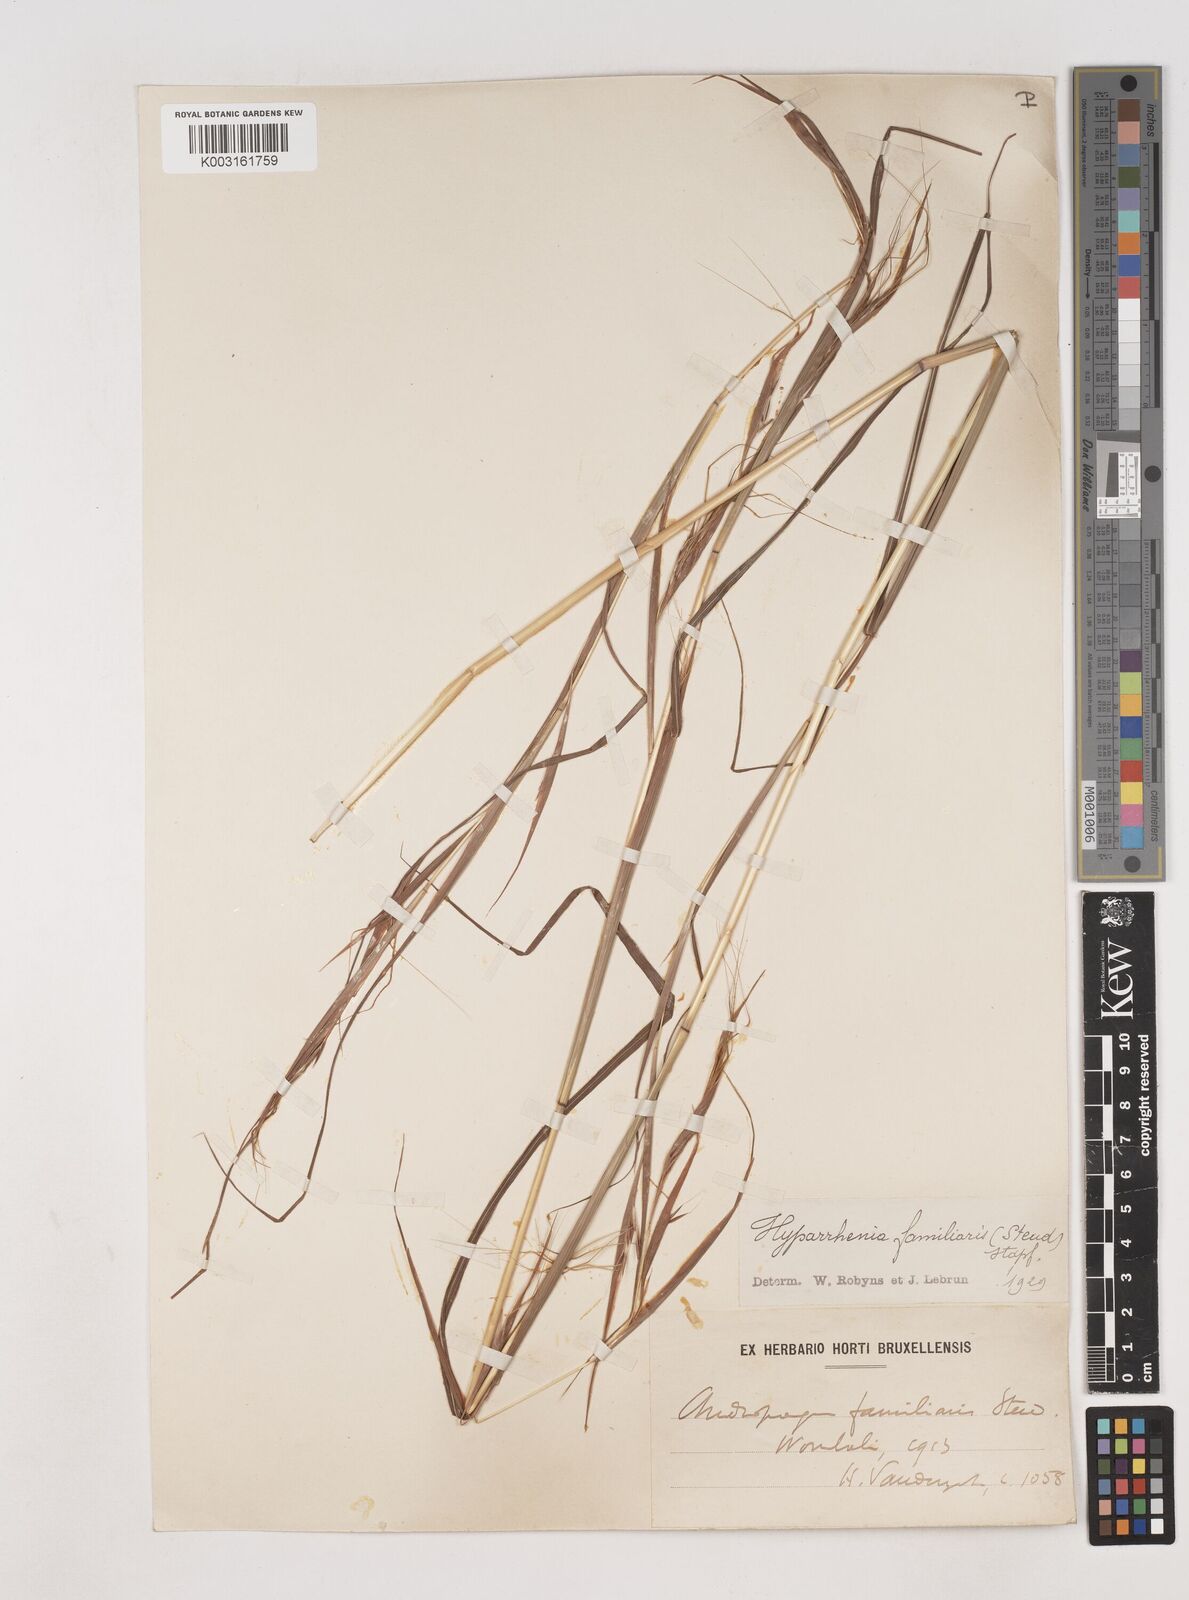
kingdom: Plantae
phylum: Tracheophyta
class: Liliopsida
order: Poales
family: Poaceae
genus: Hyparrhenia
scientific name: Hyparrhenia familiaris
